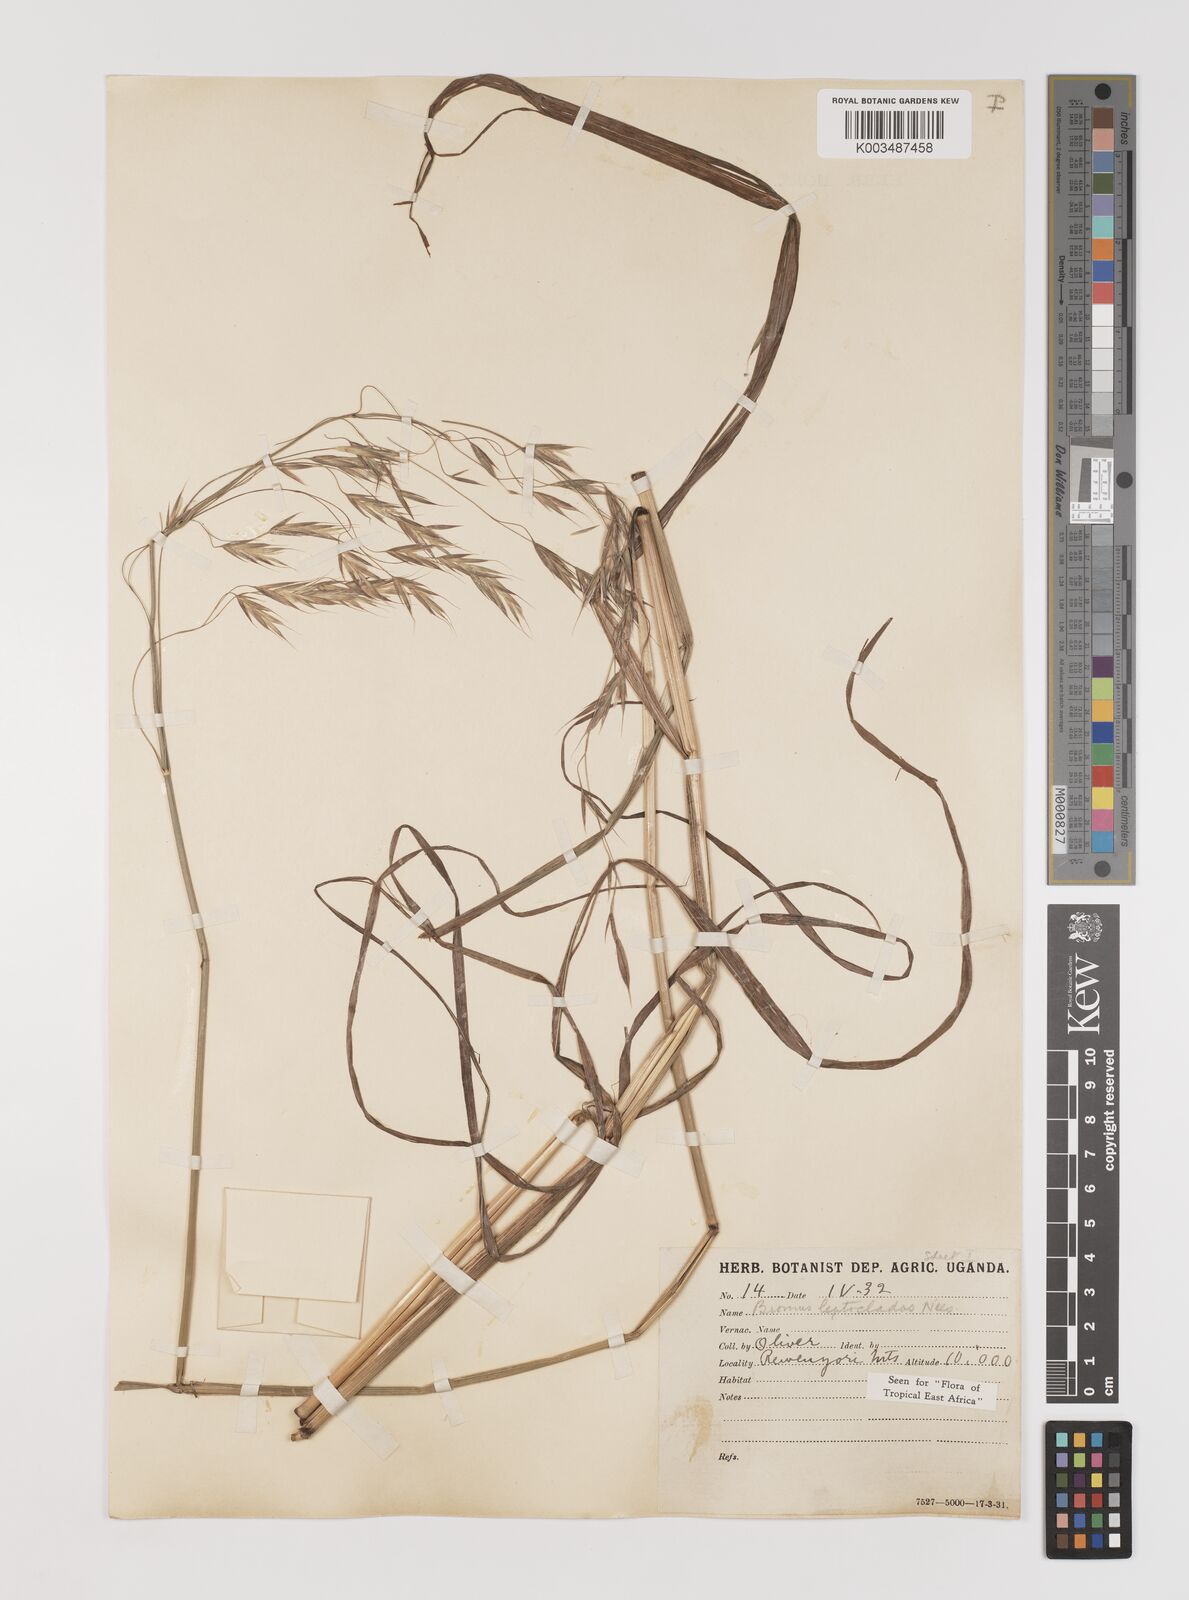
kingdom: Plantae
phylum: Tracheophyta
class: Liliopsida
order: Poales
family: Poaceae
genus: Bromus
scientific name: Bromus leptoclados
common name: Mountain bromegrass
